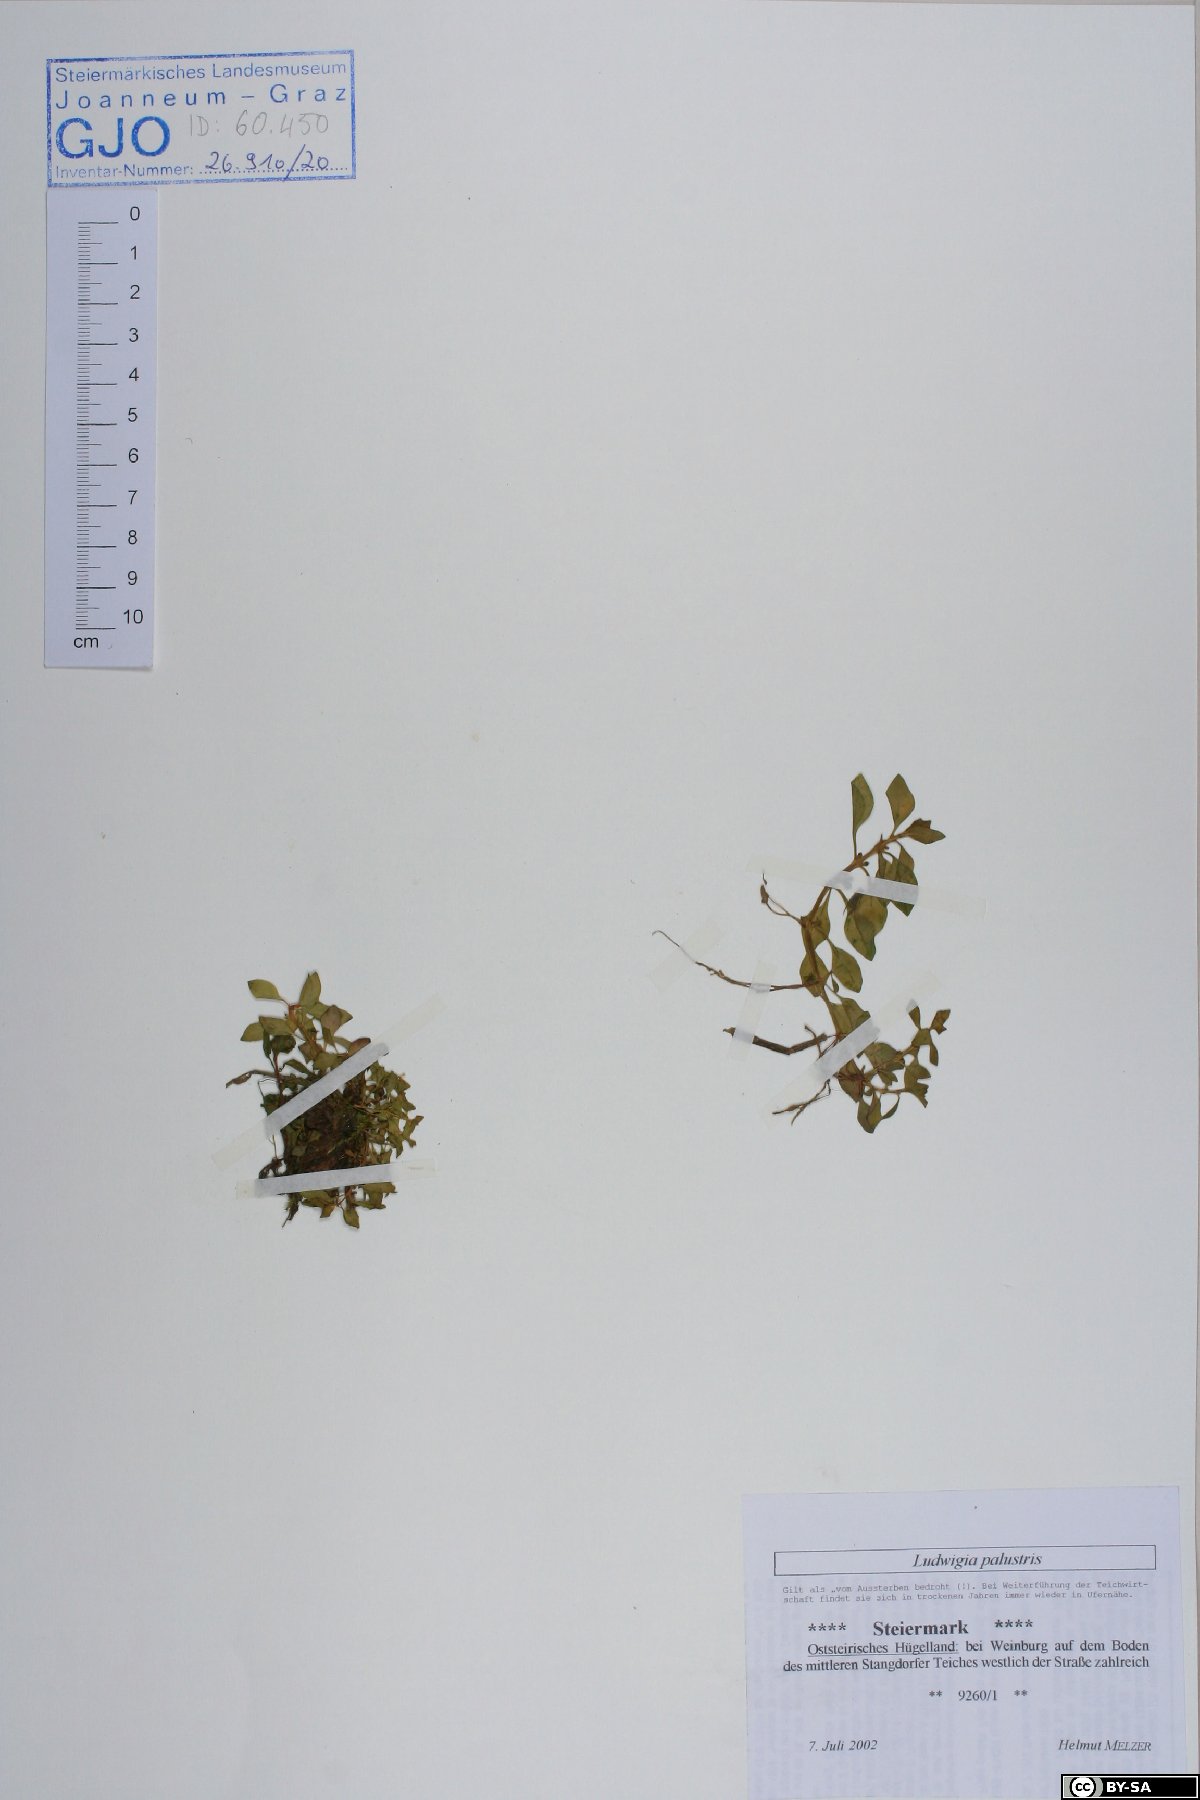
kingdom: Plantae
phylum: Tracheophyta
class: Magnoliopsida
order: Myrtales
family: Onagraceae
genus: Ludwigia
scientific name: Ludwigia palustris
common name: Hampshire-purslane
